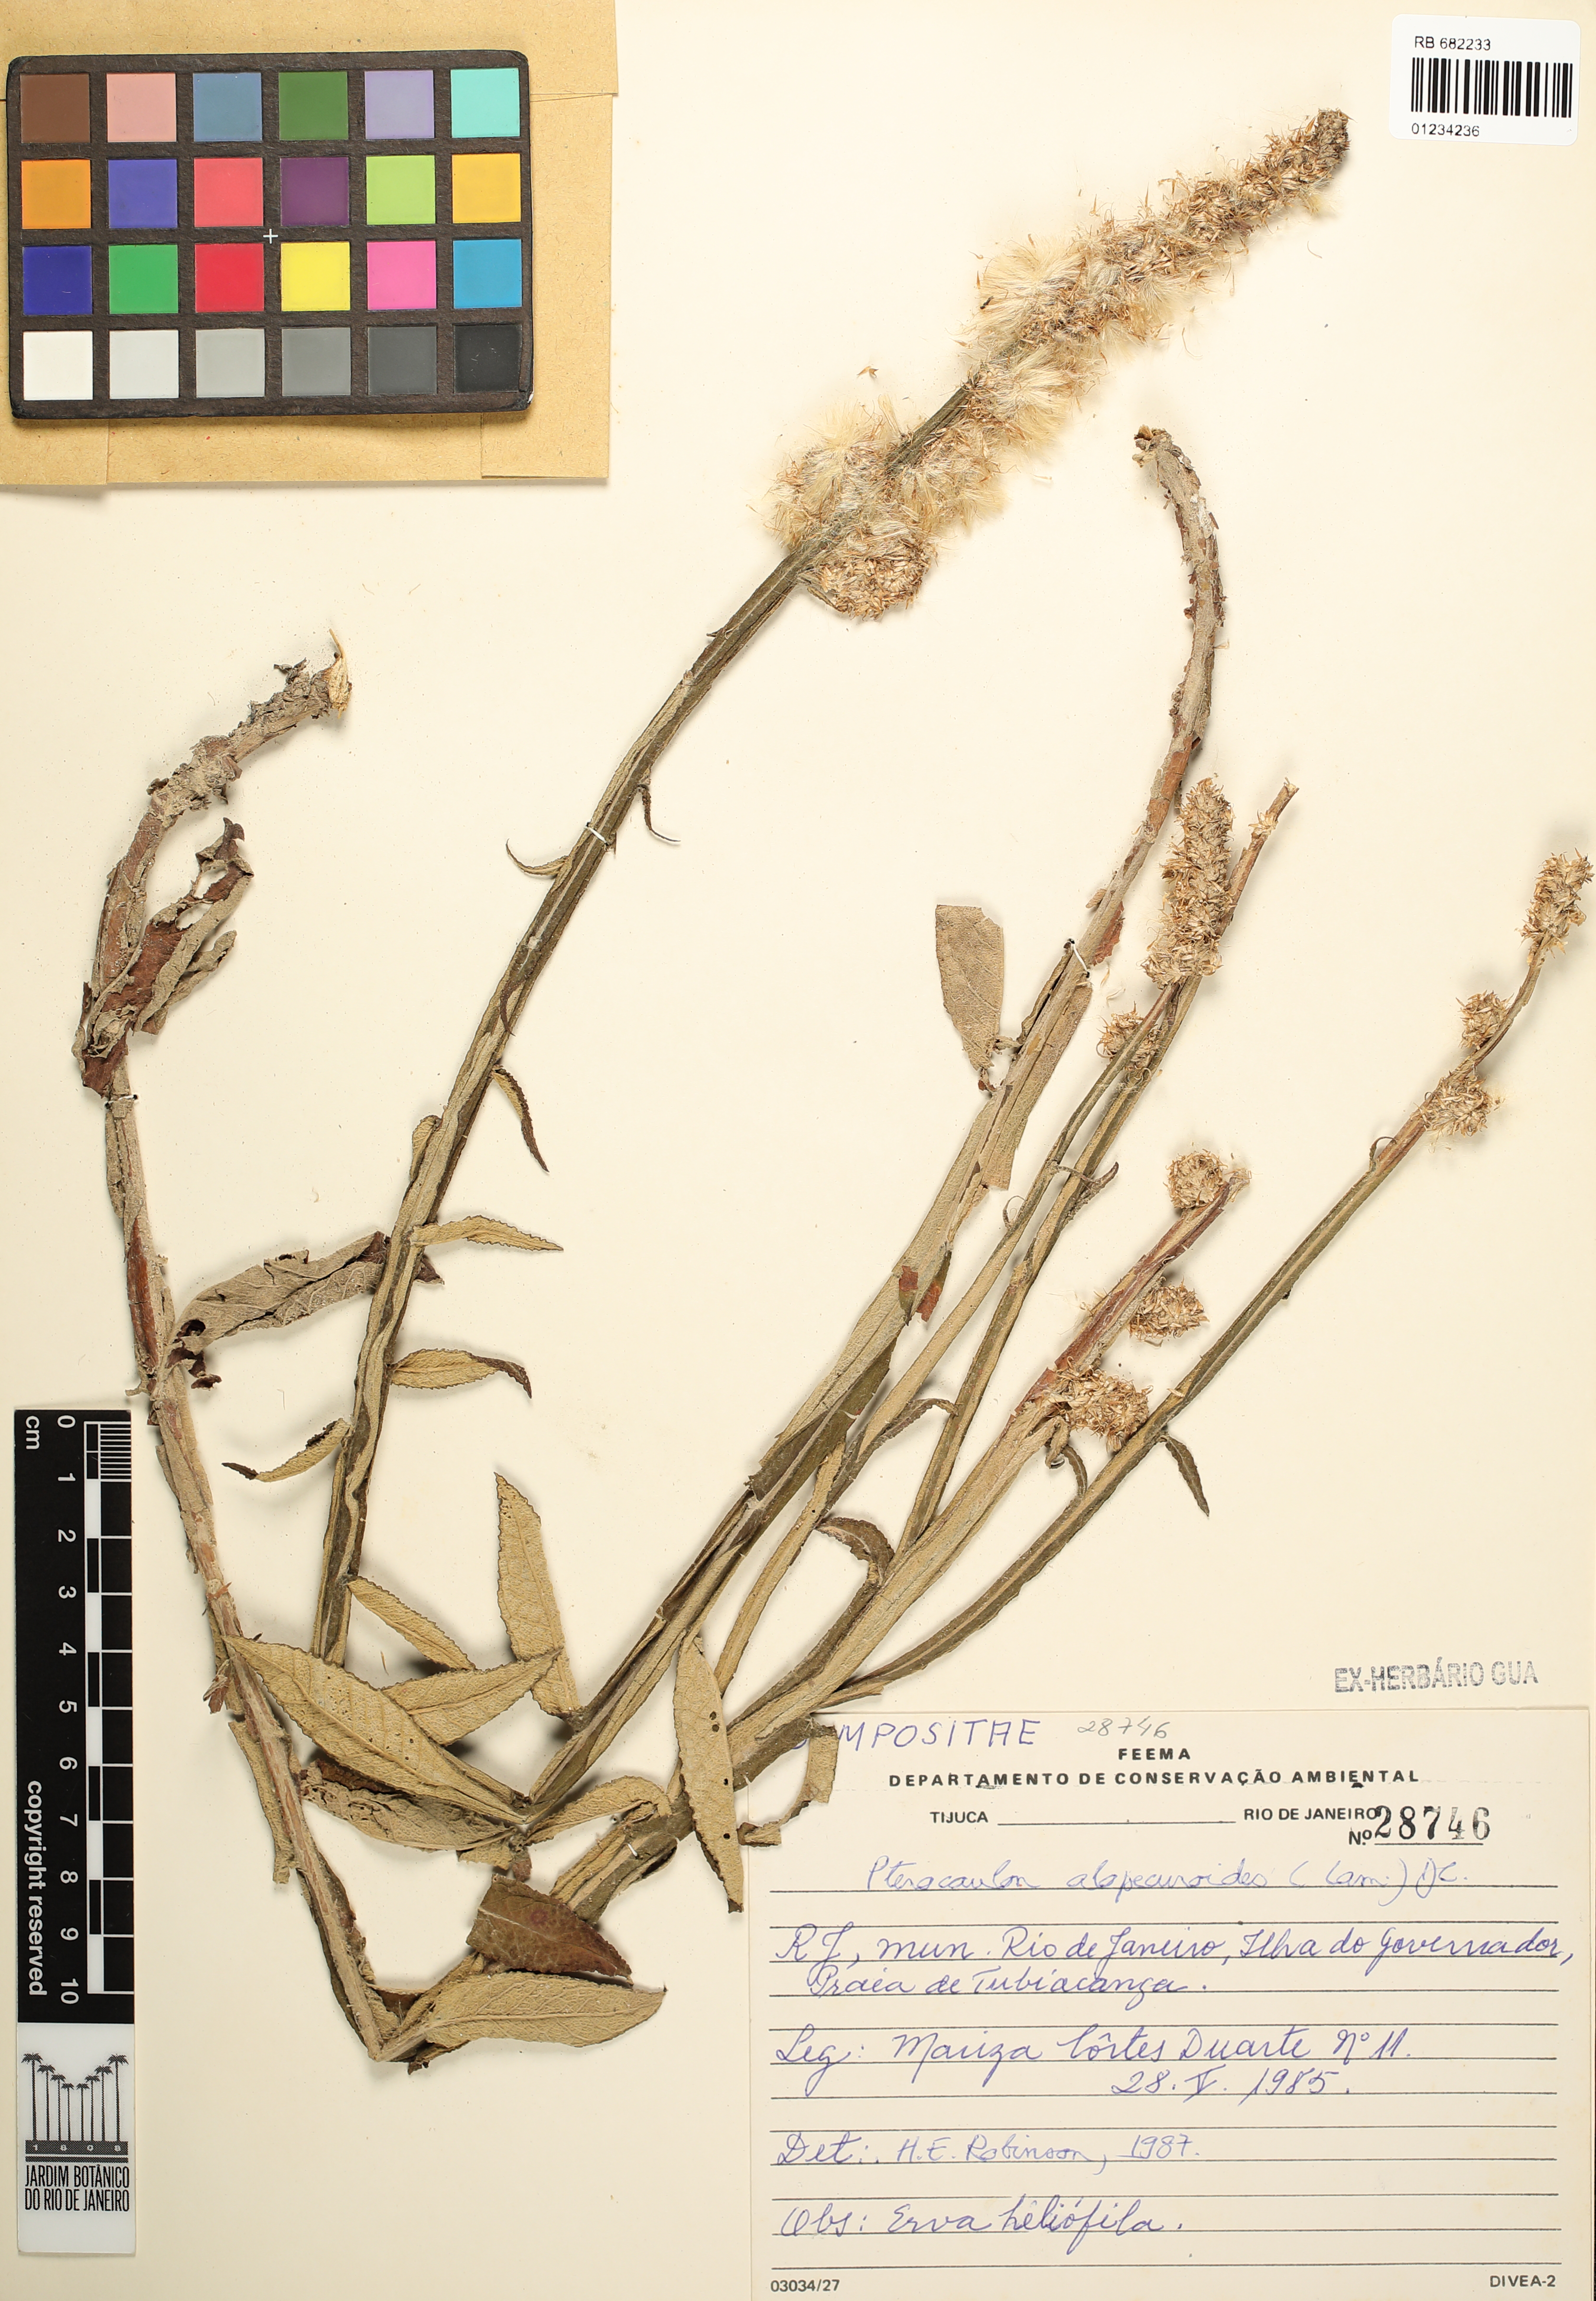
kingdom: Plantae
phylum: Tracheophyta
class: Magnoliopsida
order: Asterales
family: Asteraceae
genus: Pterocaulon
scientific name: Pterocaulon alopecuroides
